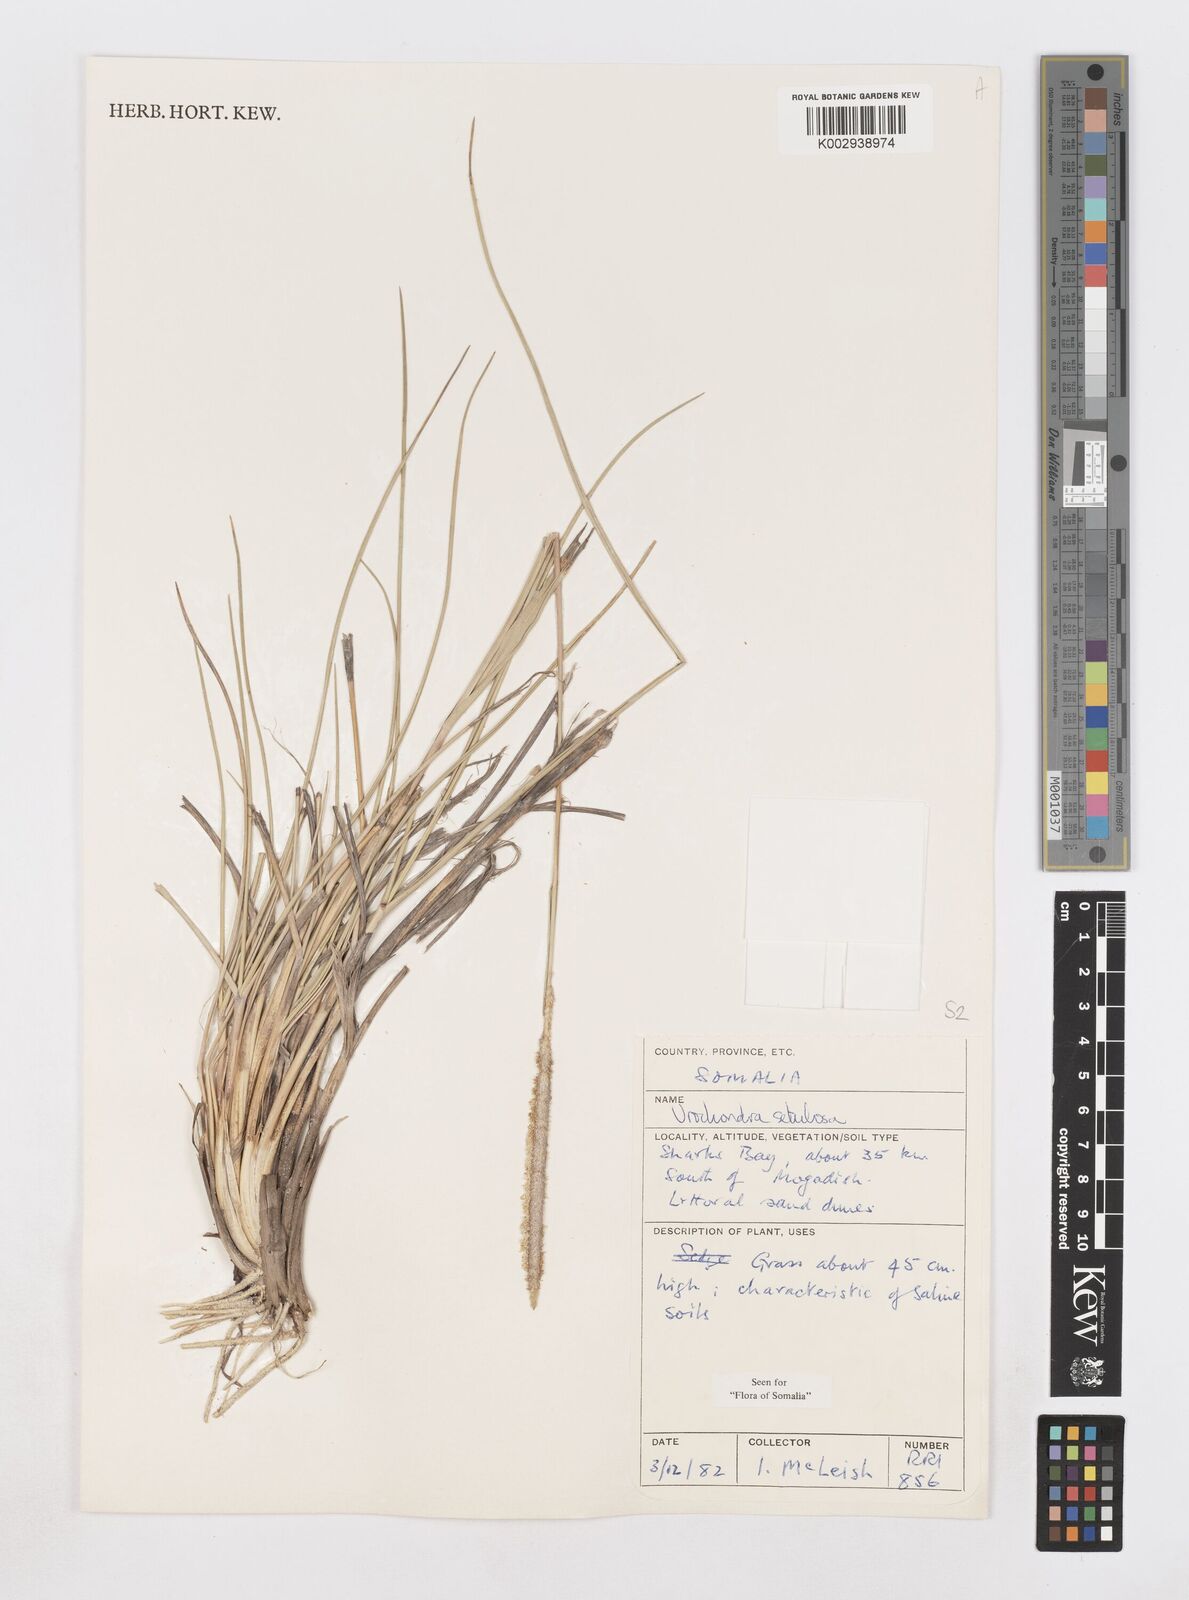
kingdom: Plantae
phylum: Tracheophyta
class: Liliopsida
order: Poales
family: Poaceae
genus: Urochondra
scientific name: Urochondra setulosa
